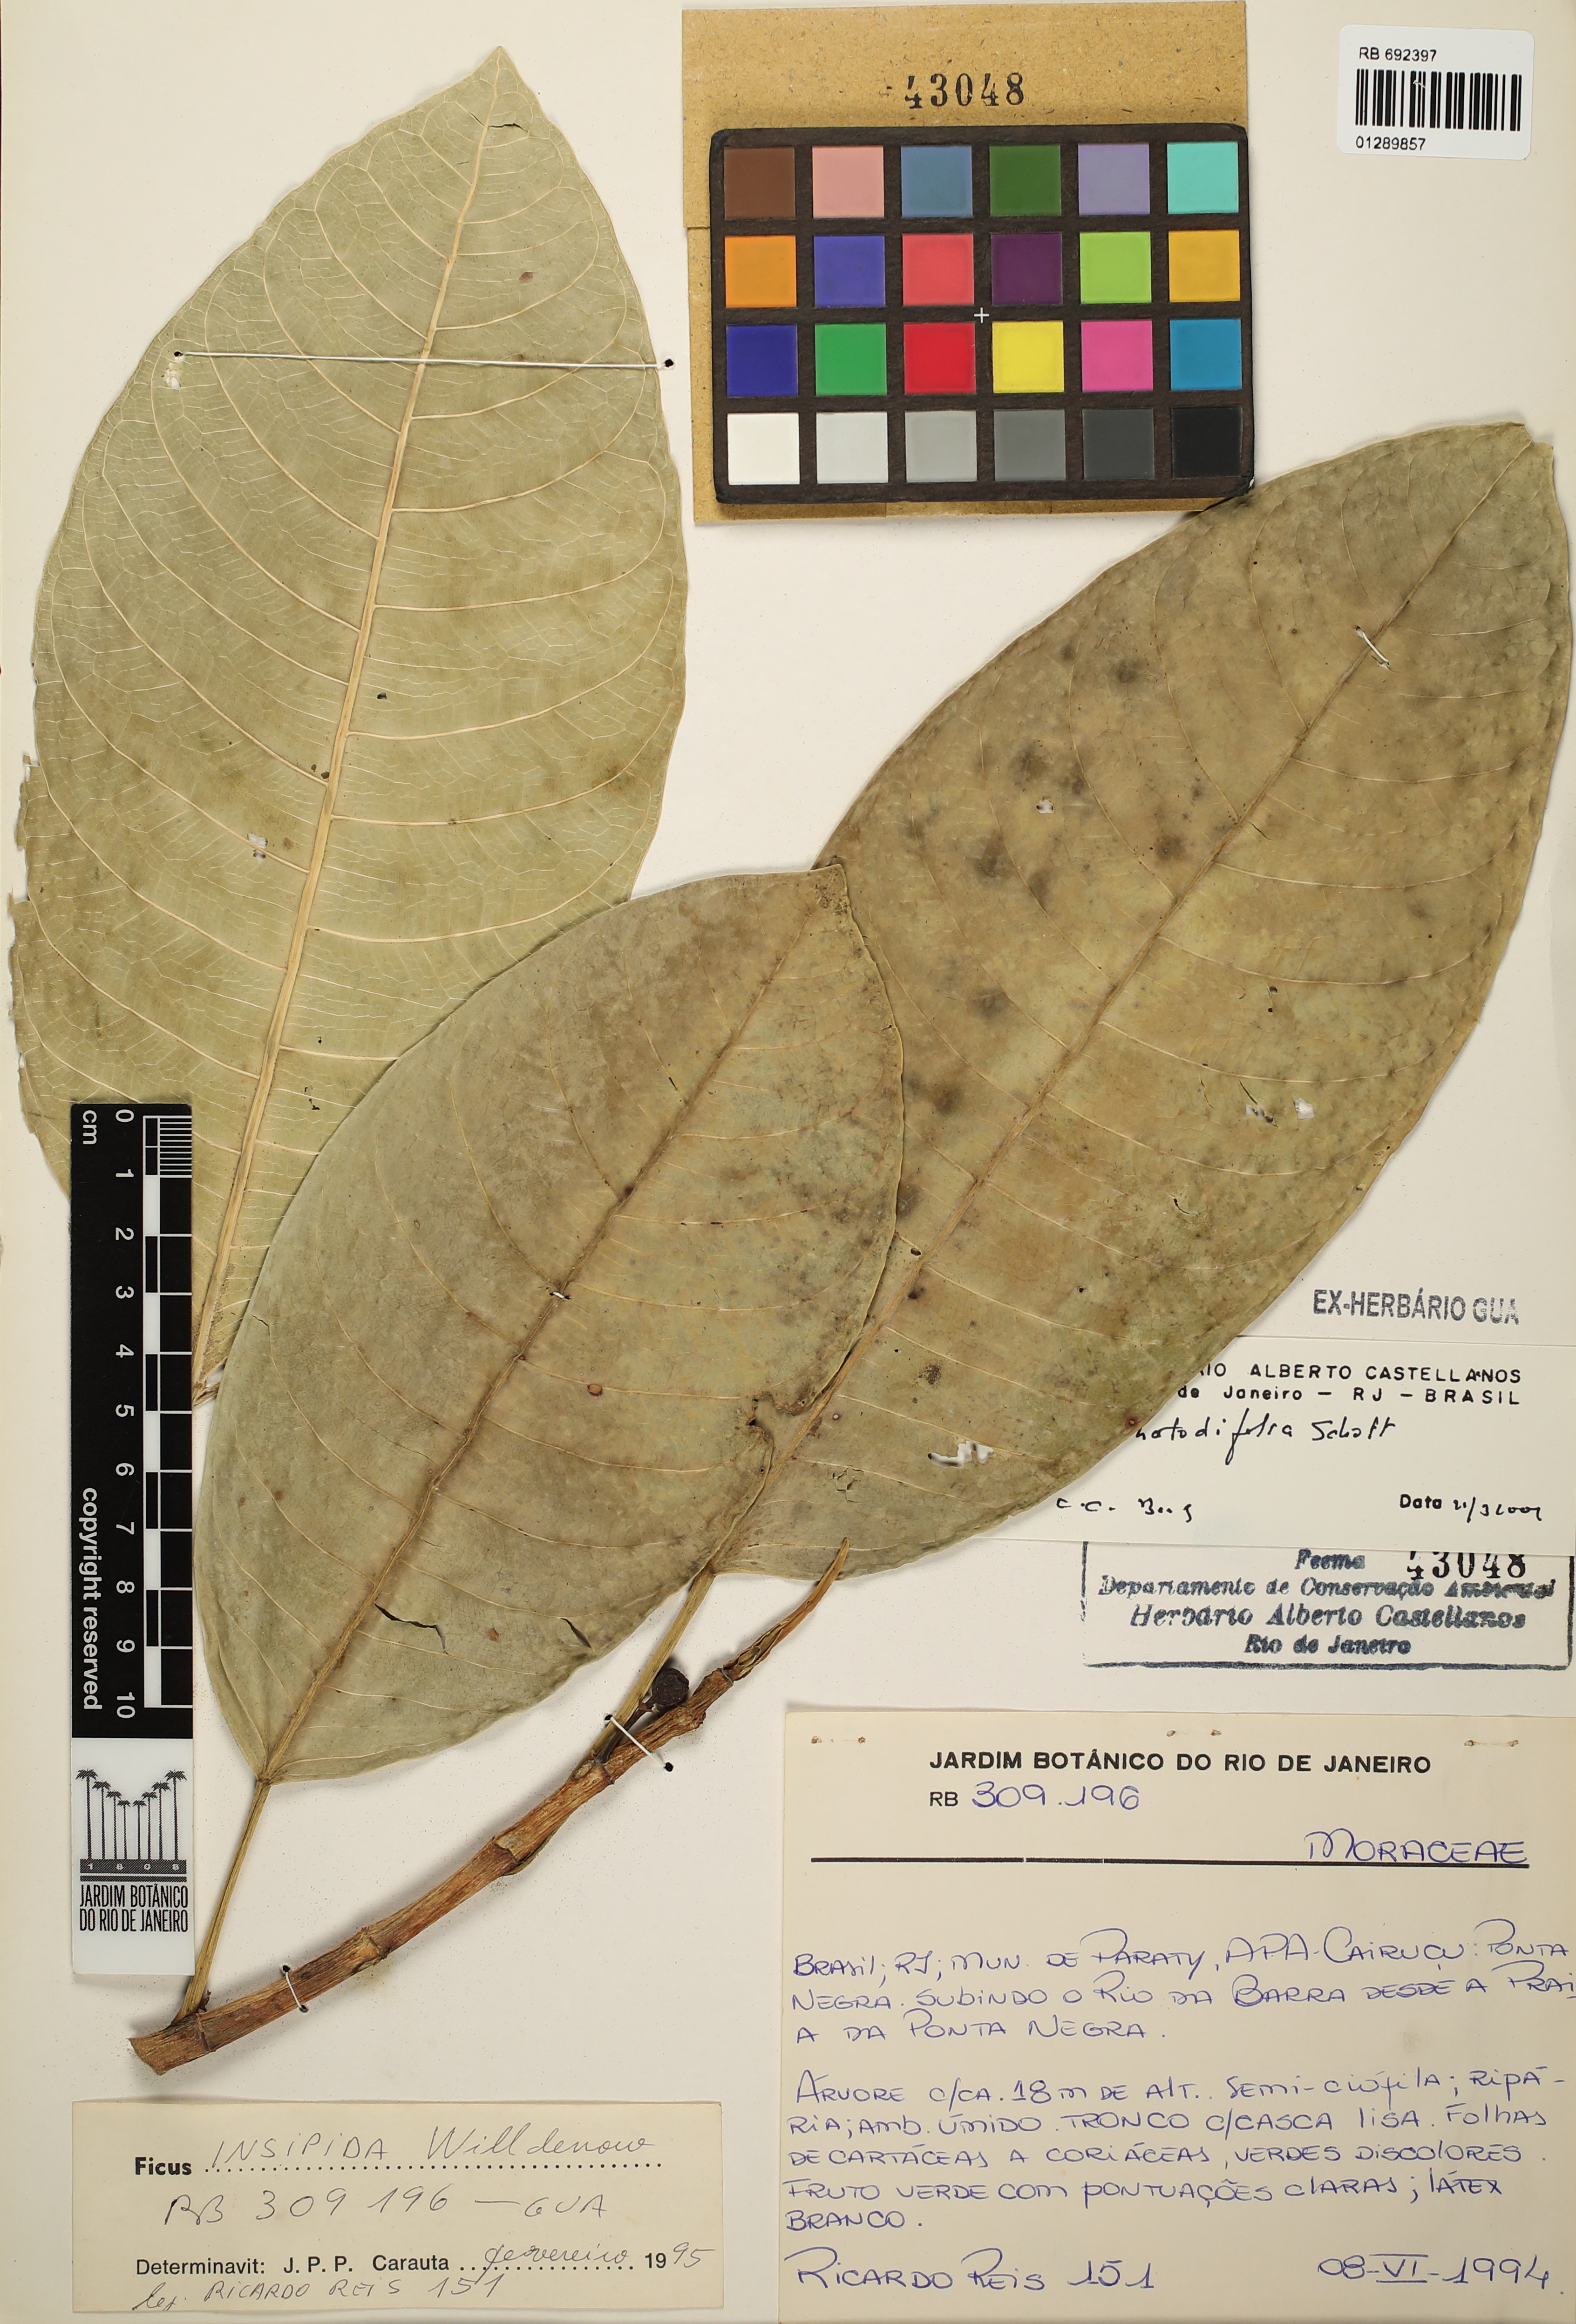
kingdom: Plantae
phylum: Tracheophyta
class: Magnoliopsida
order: Rosales
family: Moraceae
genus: Ficus
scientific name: Ficus adhatodifolia
